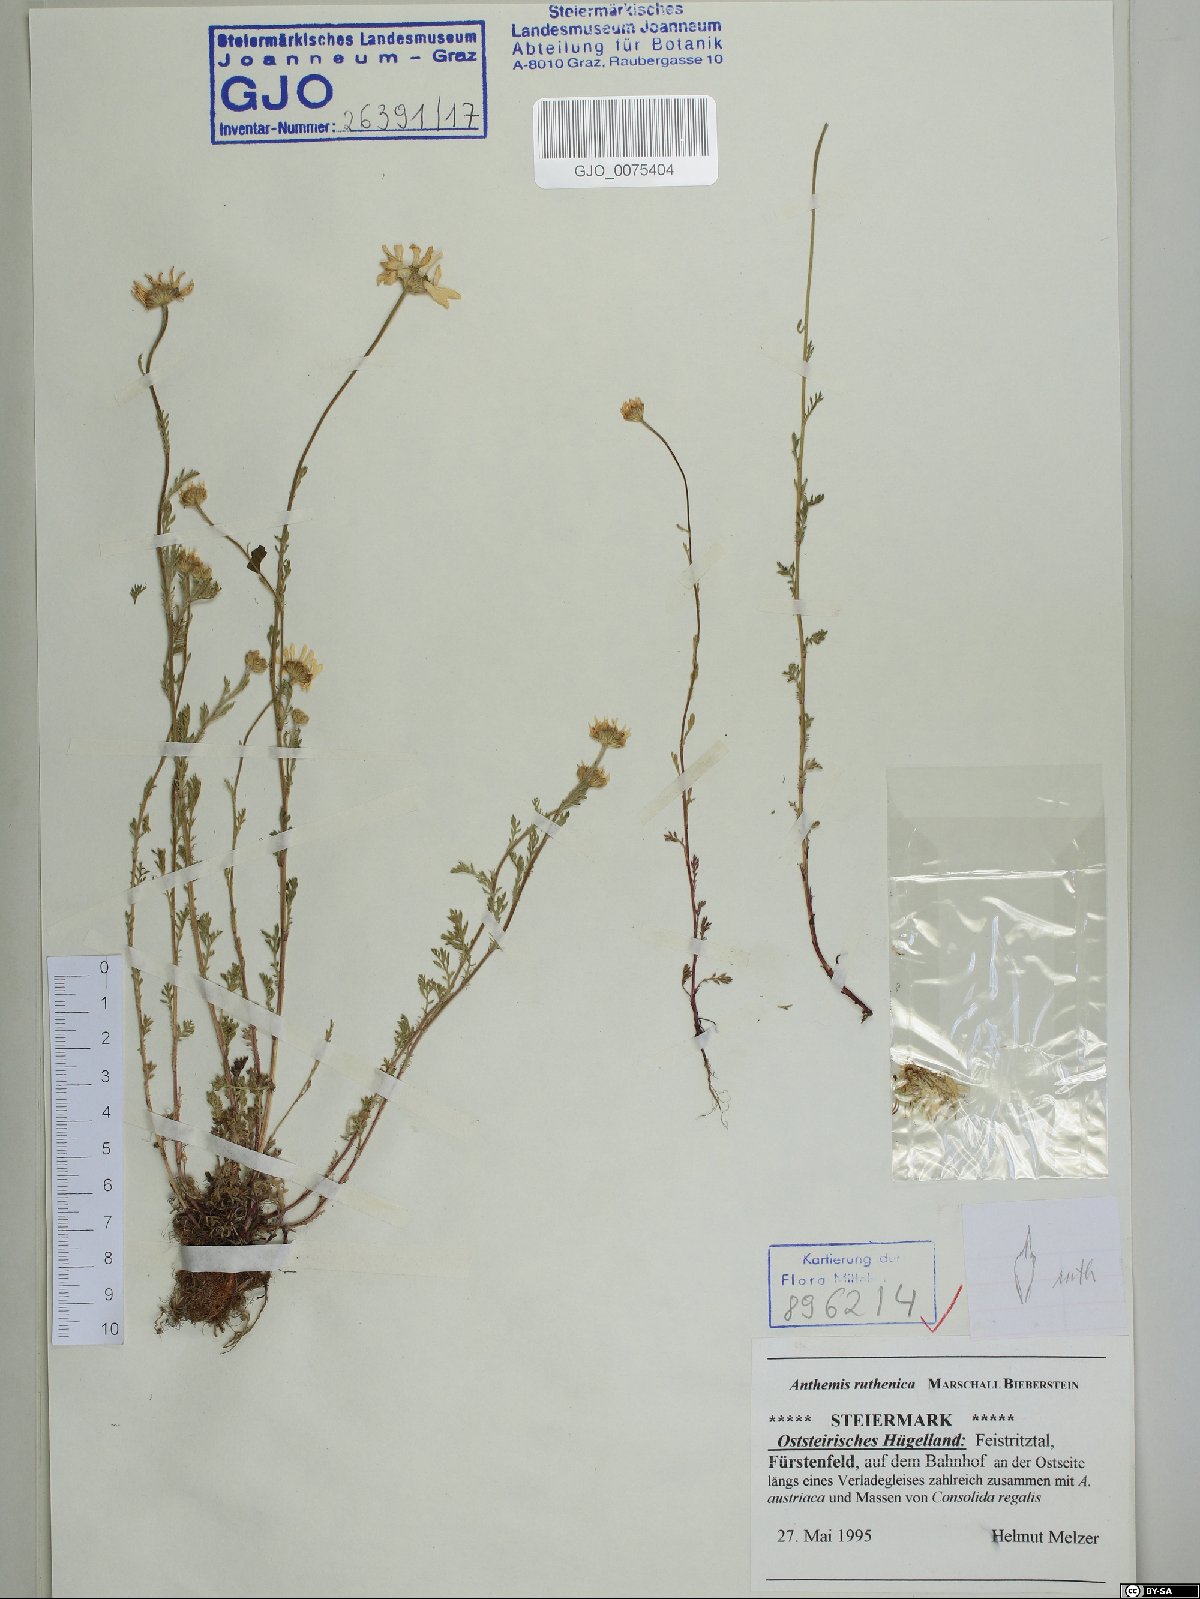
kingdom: Plantae
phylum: Tracheophyta
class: Magnoliopsida
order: Asterales
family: Asteraceae
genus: Anthemis
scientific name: Anthemis ruthenica
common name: Eastern chamomile
